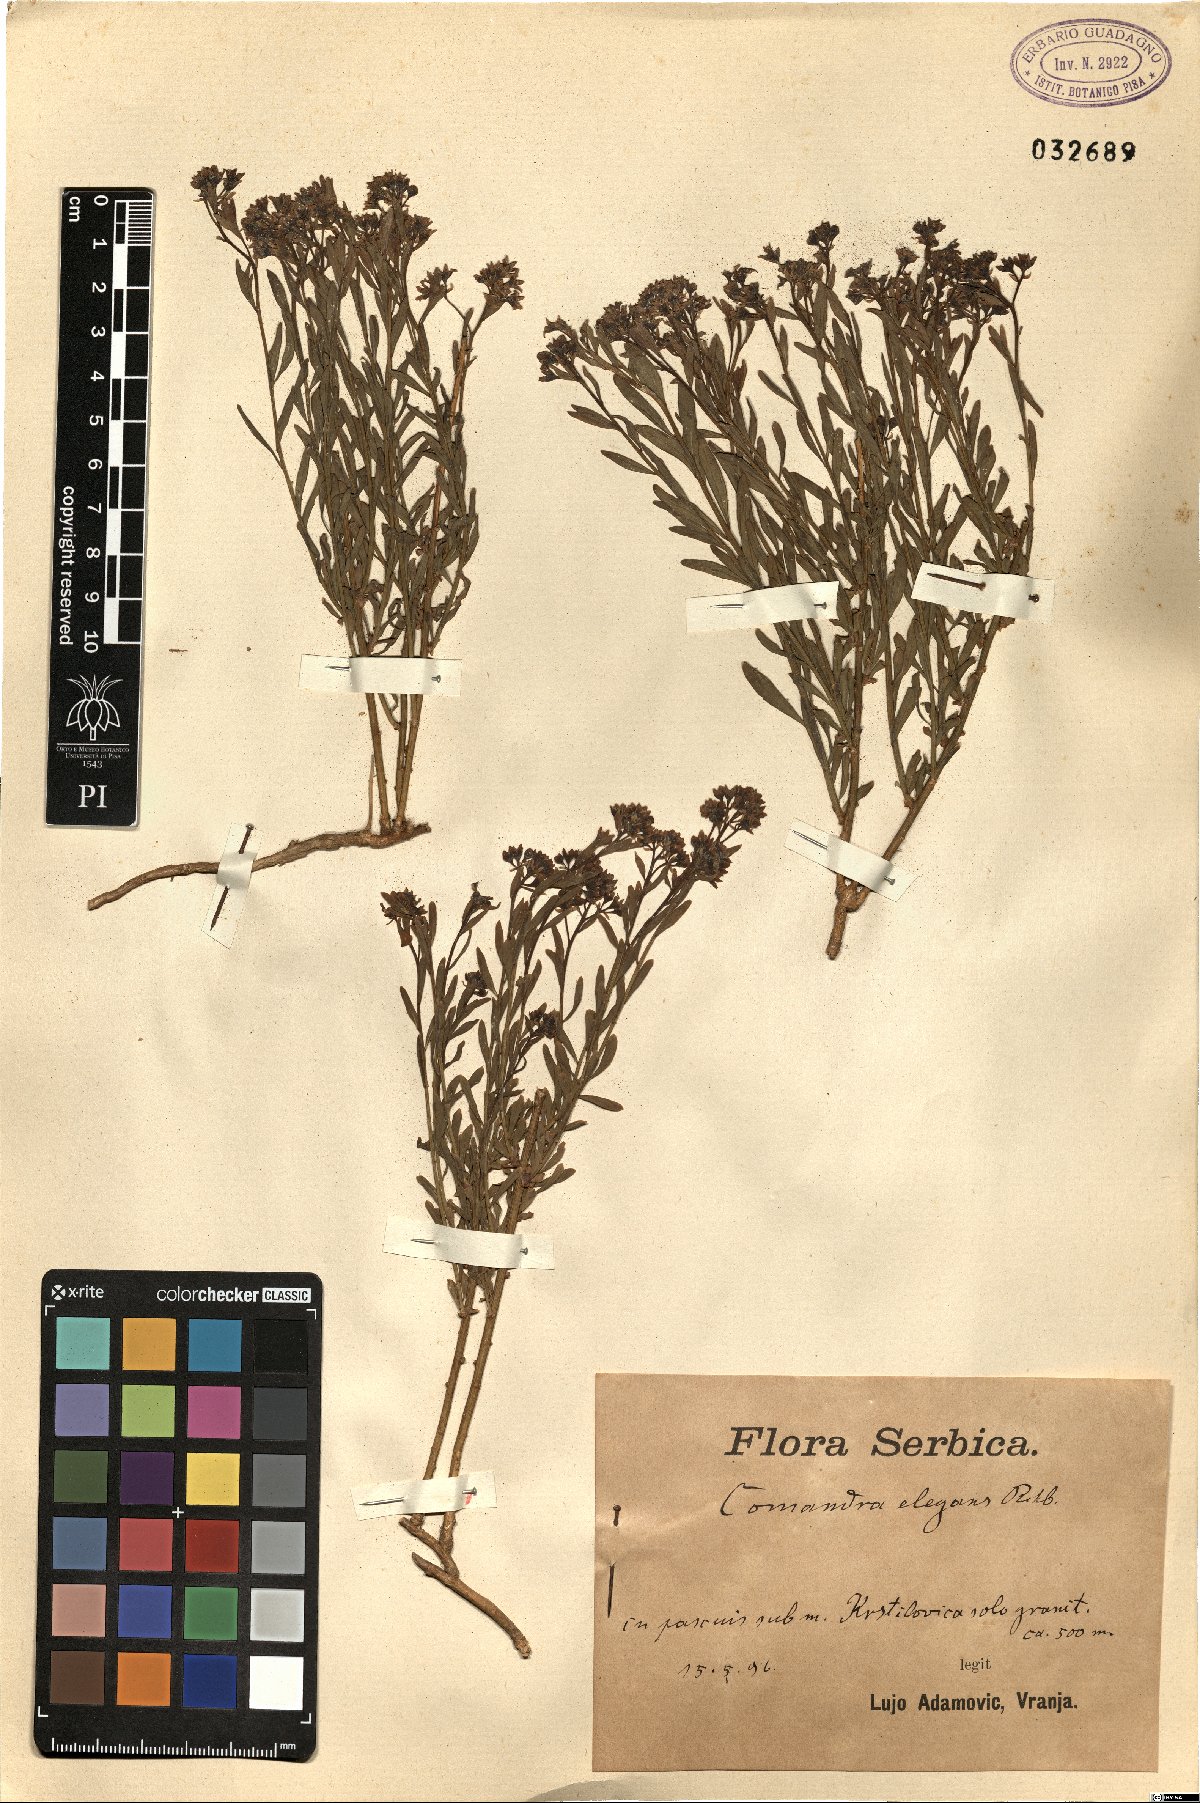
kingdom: Plantae
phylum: Tracheophyta
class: Magnoliopsida
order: Santalales
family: Comandraceae
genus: Comandra
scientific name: Comandra umbellata
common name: Bastard toadflax
